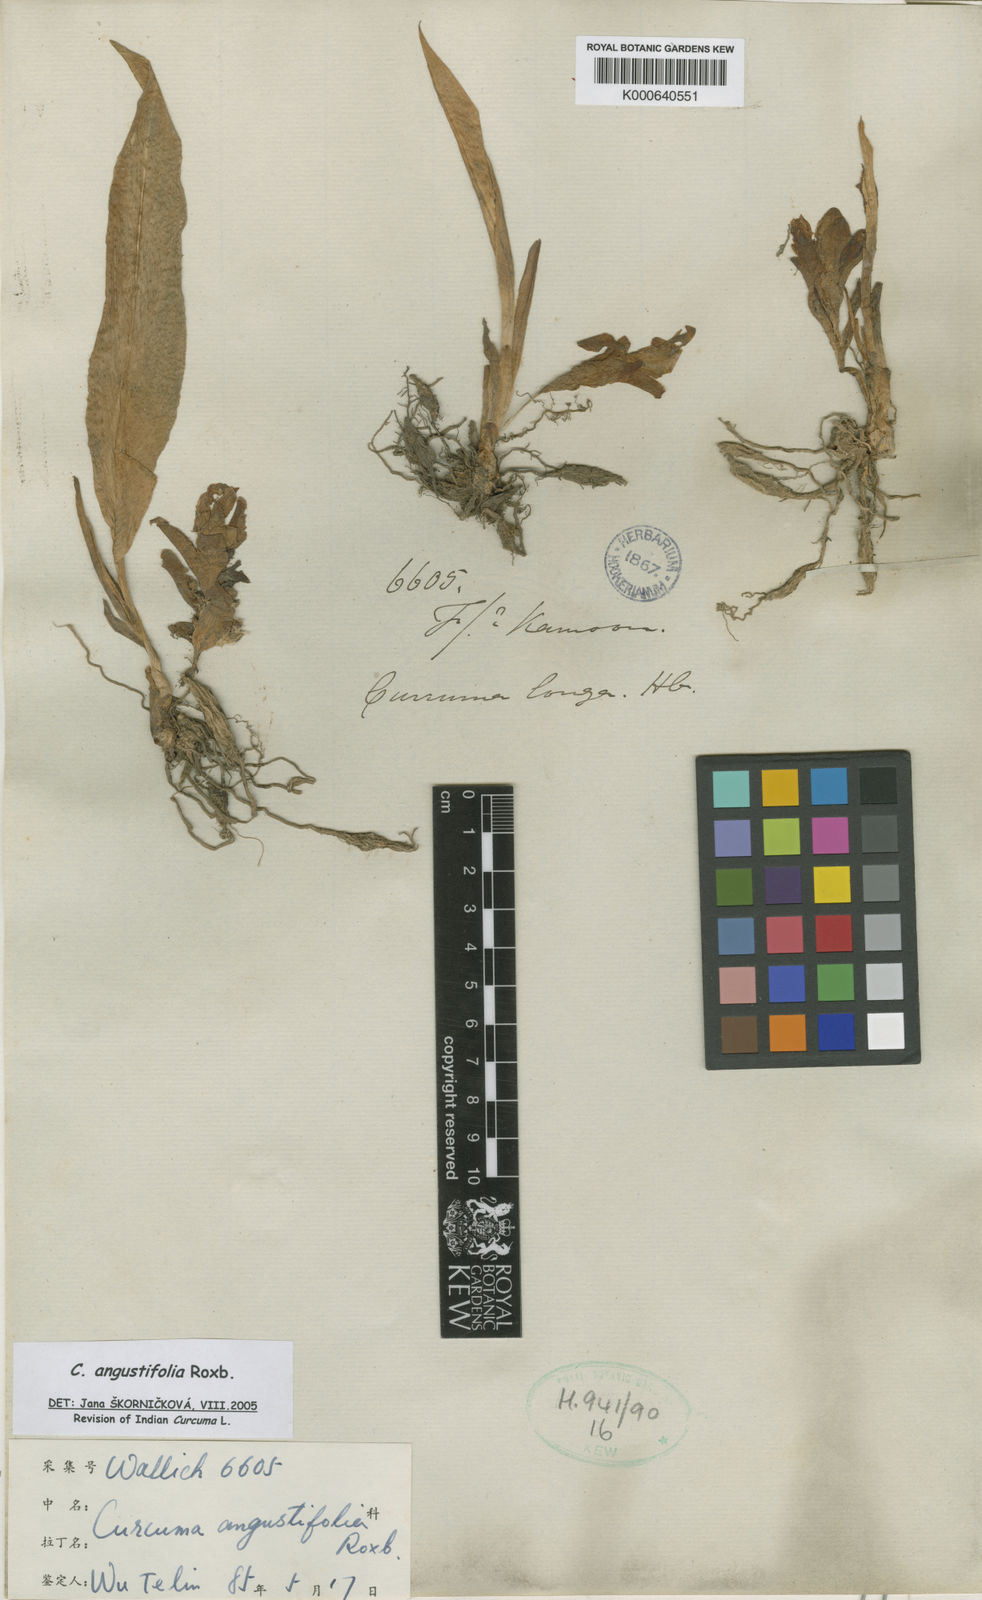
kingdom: Plantae
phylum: Tracheophyta
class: Liliopsida
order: Zingiberales
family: Zingiberaceae
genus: Curcuma
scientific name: Curcuma angustifolia
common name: East indian arrowroot
